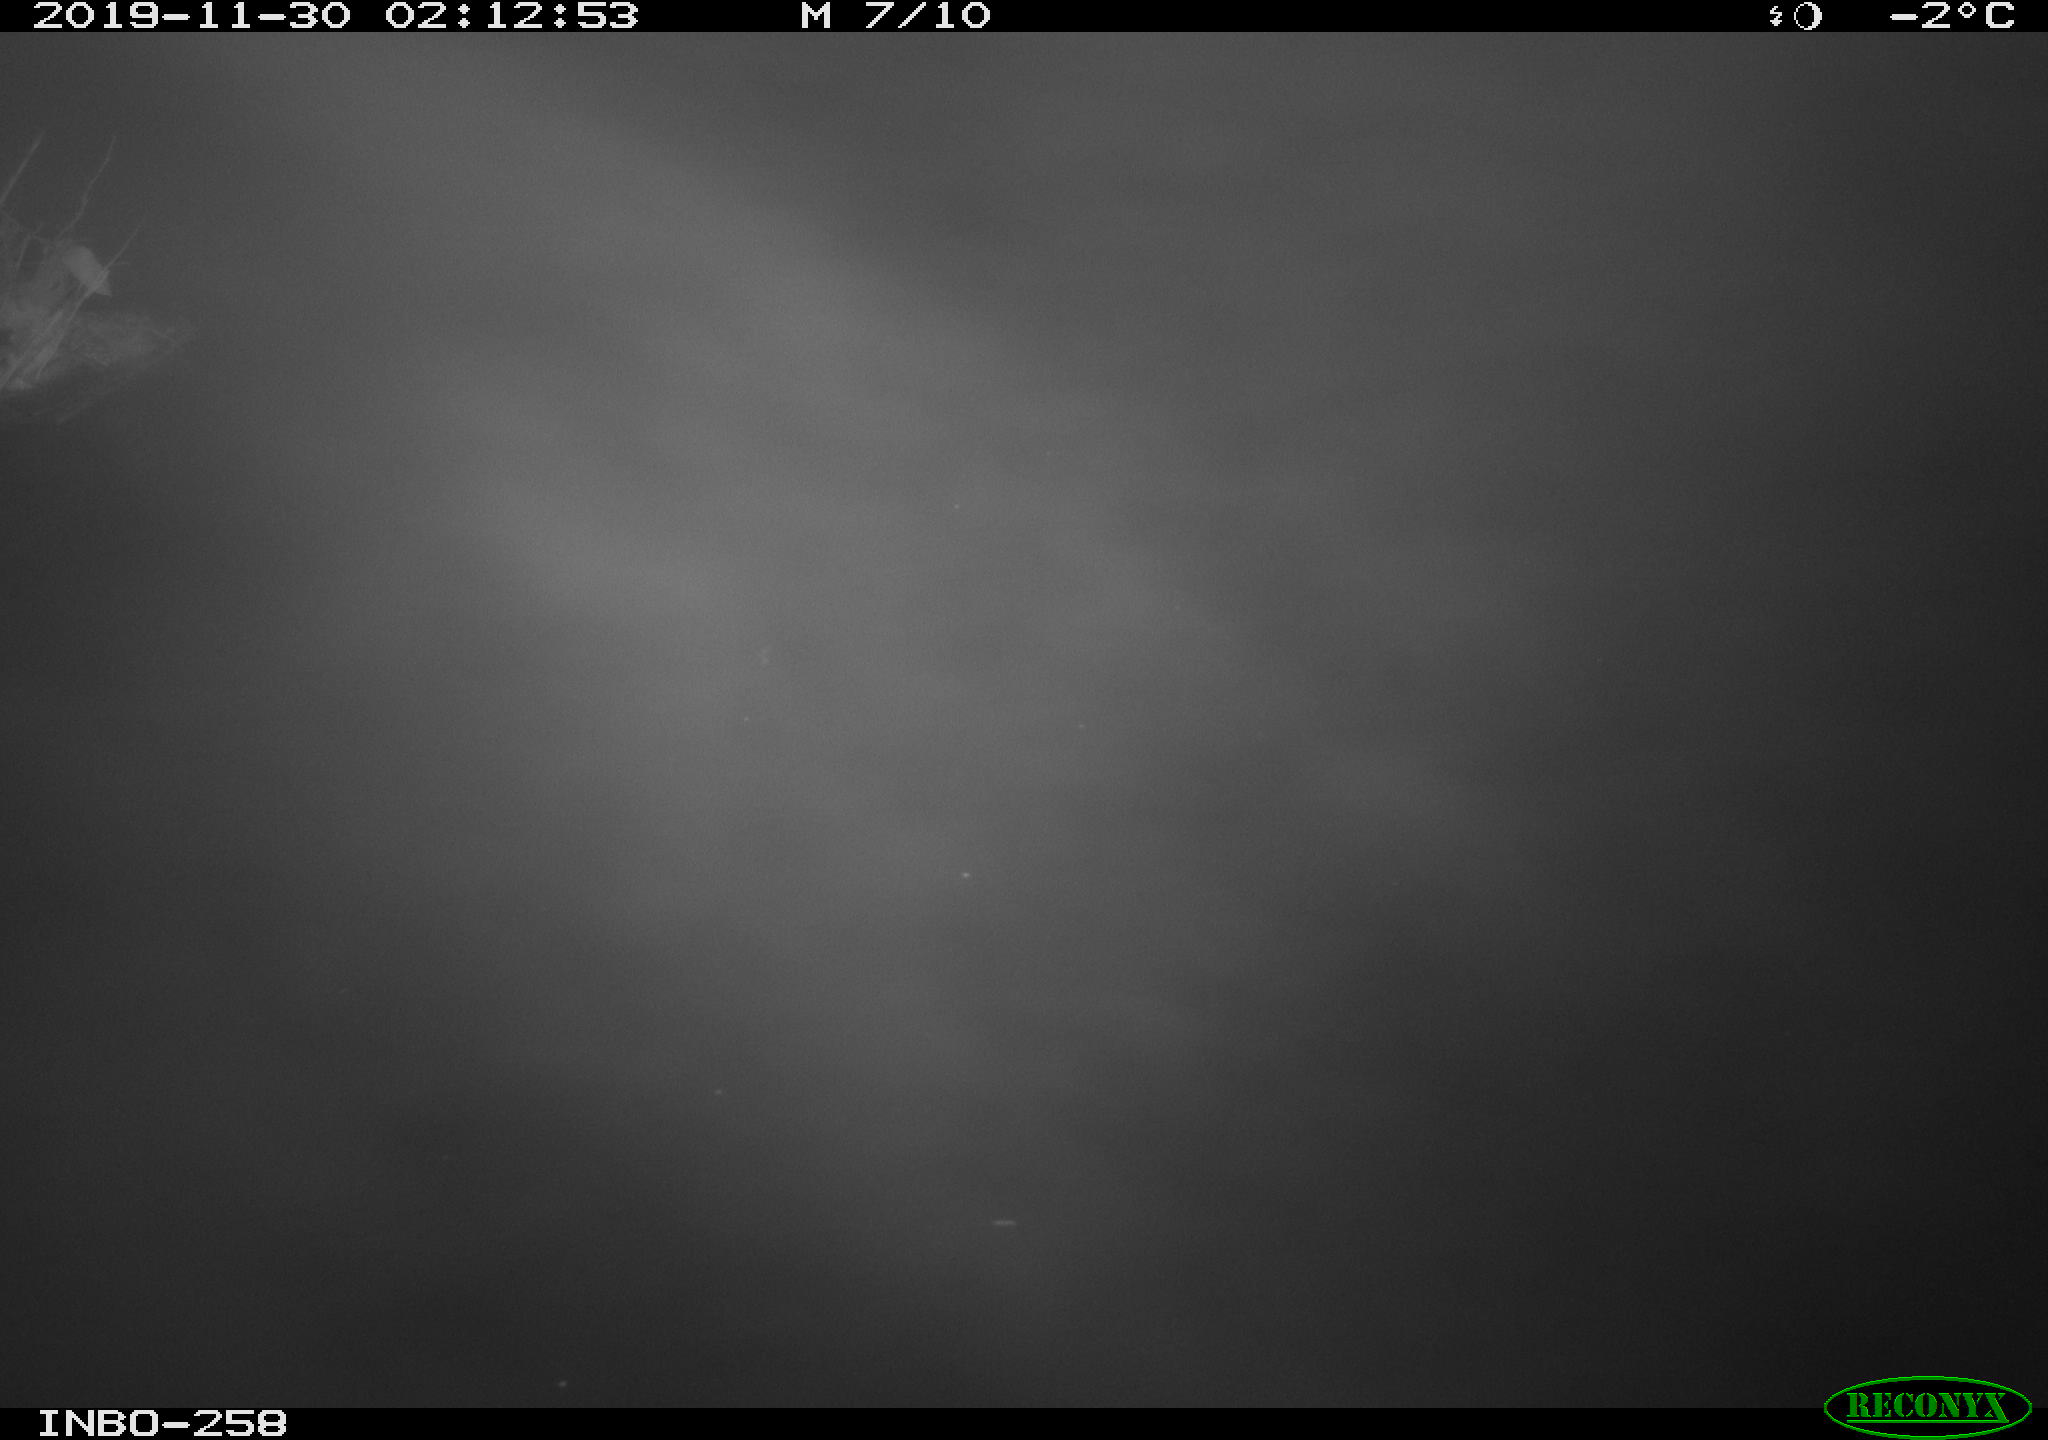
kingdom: Animalia
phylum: Chordata
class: Aves
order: Anseriformes
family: Anatidae
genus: Anas
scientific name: Anas platyrhynchos
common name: Mallard
